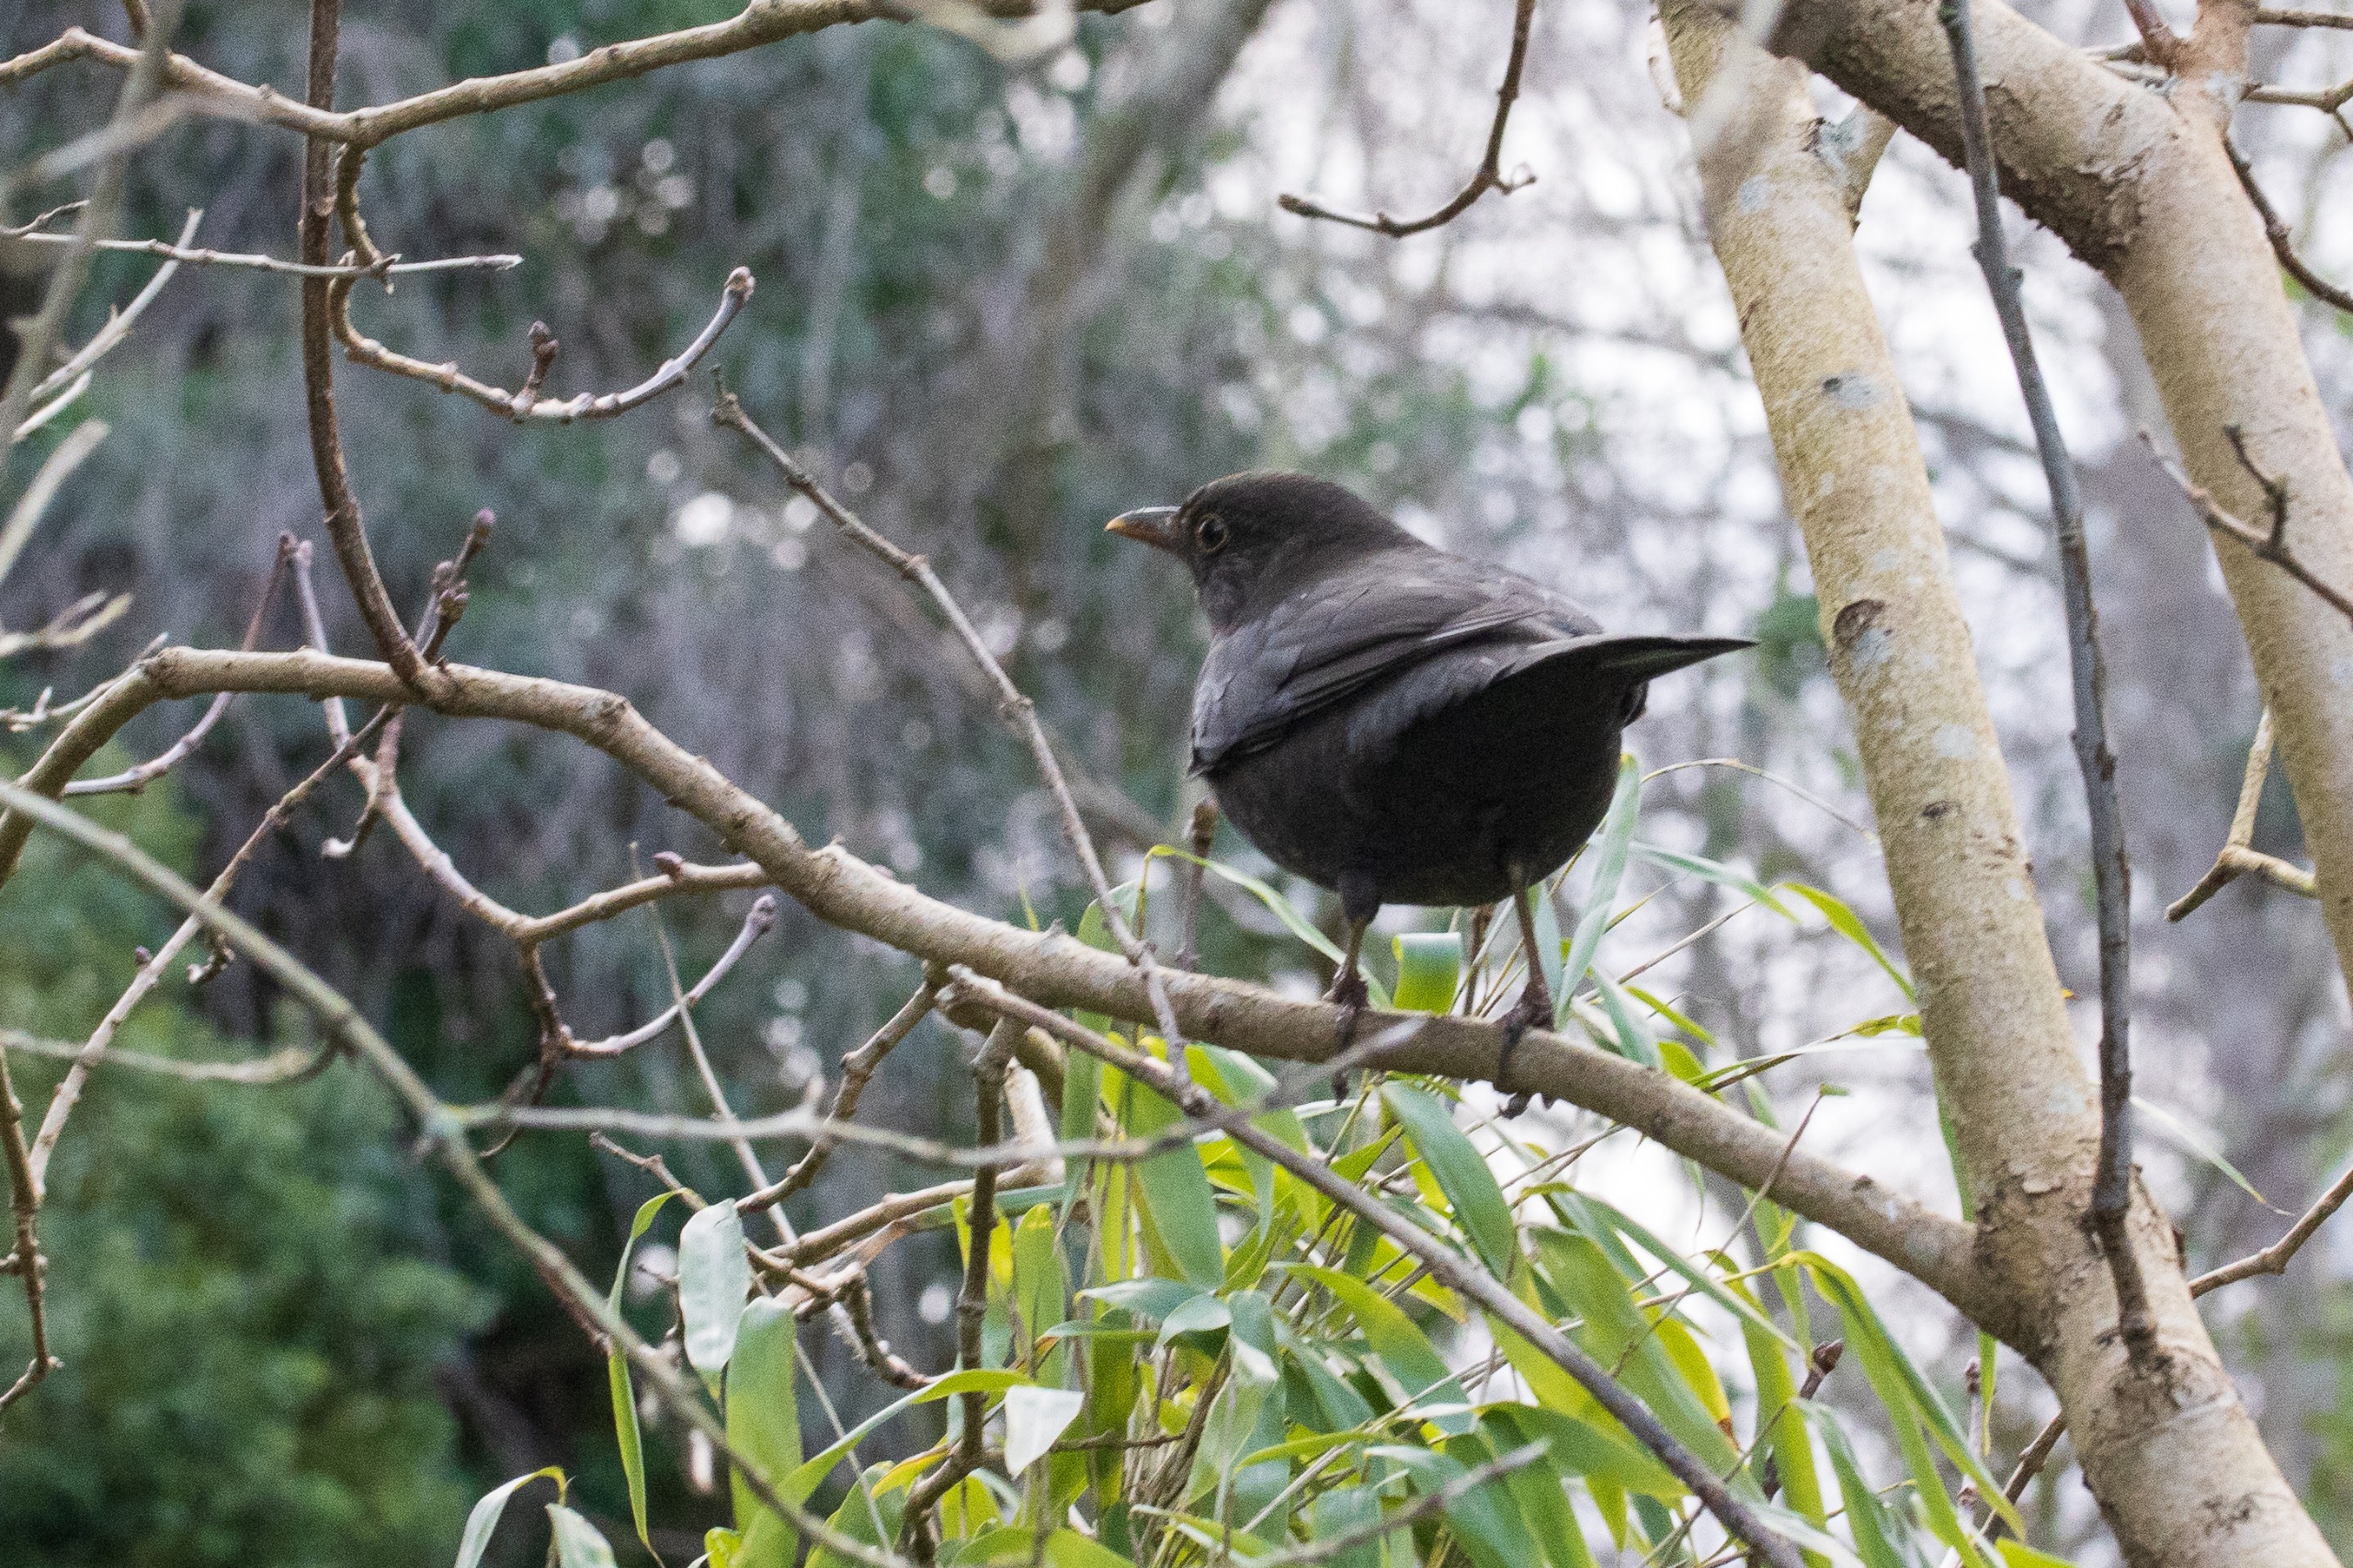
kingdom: Animalia
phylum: Chordata
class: Aves
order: Passeriformes
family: Turdidae
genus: Turdus
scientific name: Turdus merula
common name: Solsort
